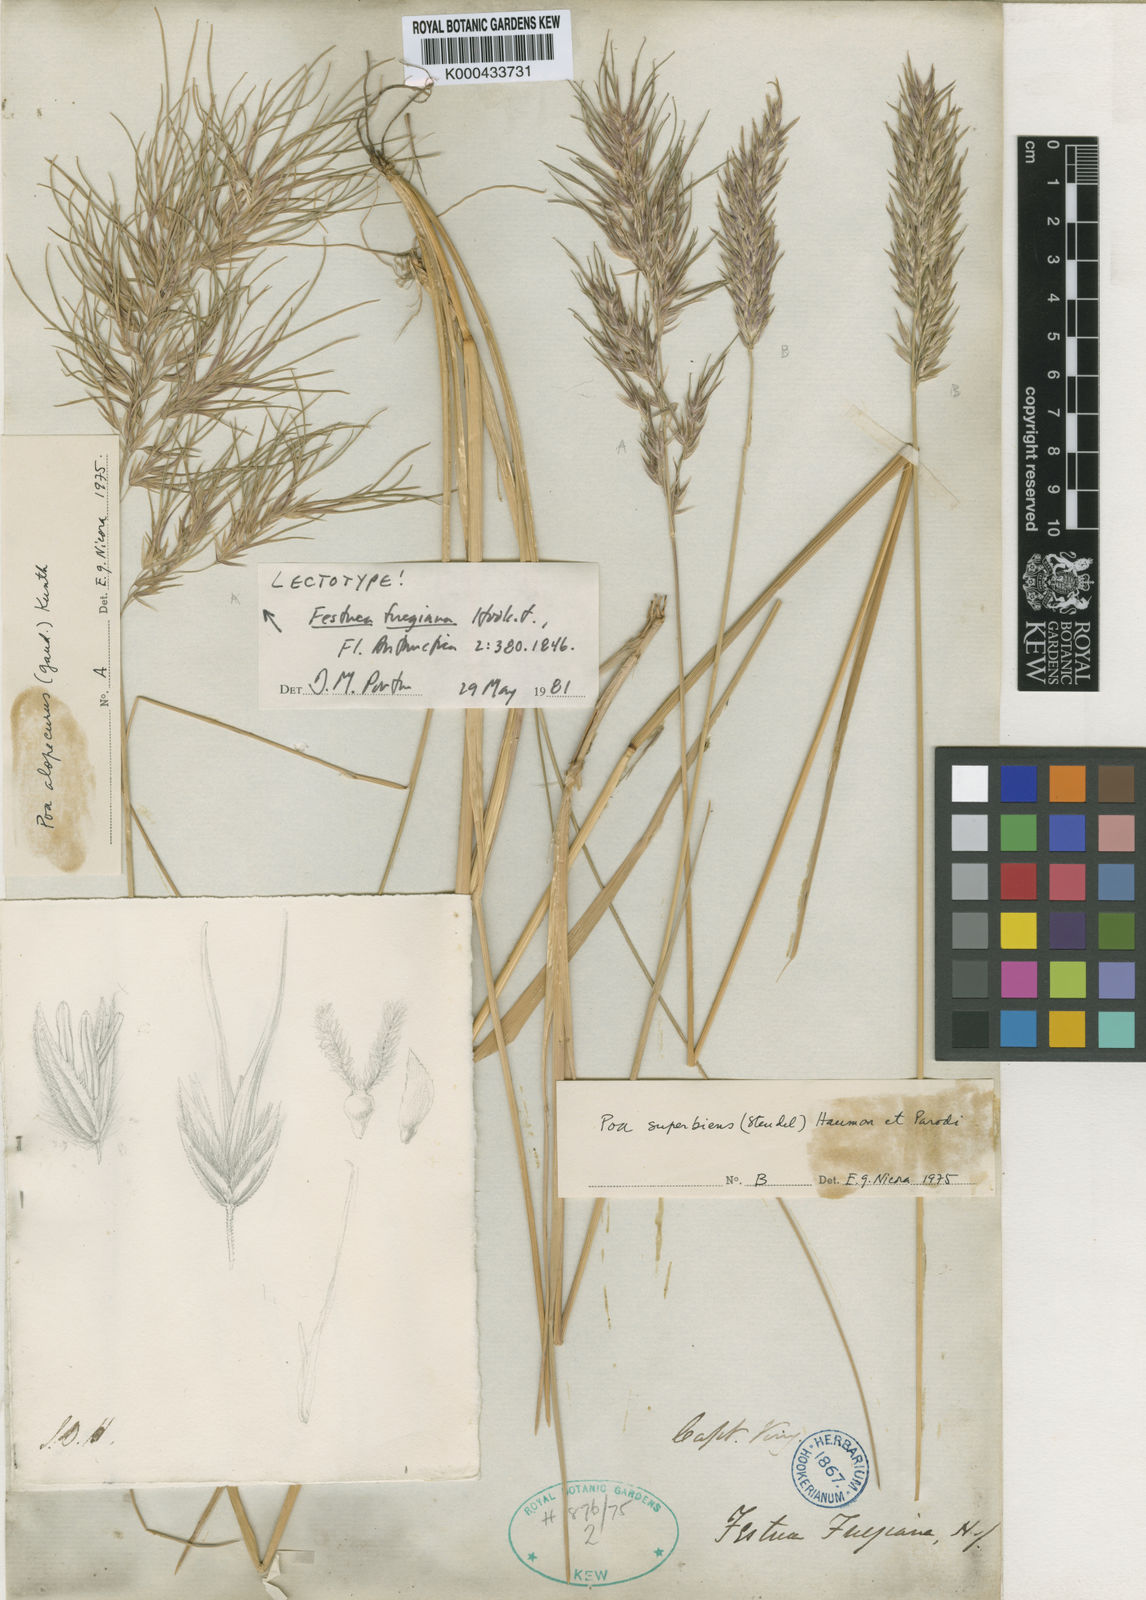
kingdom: Plantae
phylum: Tracheophyta
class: Liliopsida
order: Poales
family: Poaceae
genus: Poa
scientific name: Poa alopecurus
